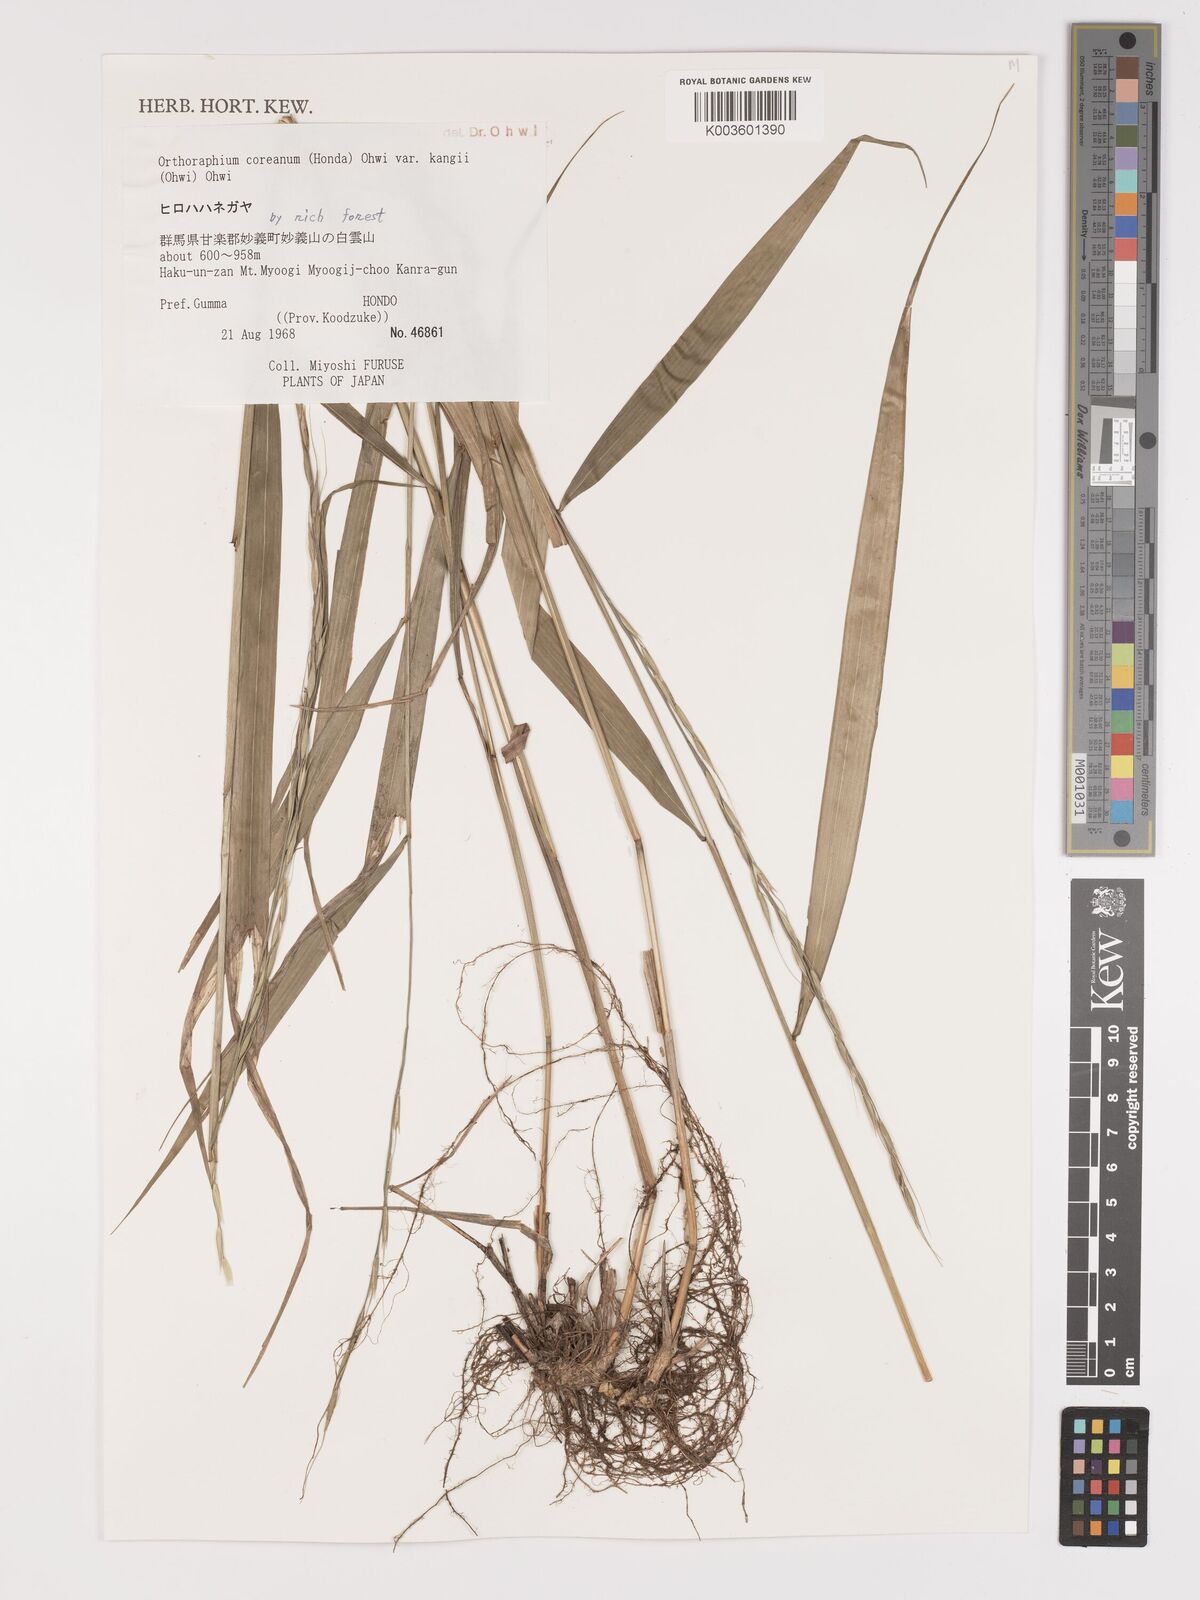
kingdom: Plantae
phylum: Tracheophyta
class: Liliopsida
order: Poales
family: Poaceae
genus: Patis
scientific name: Patis coreana
